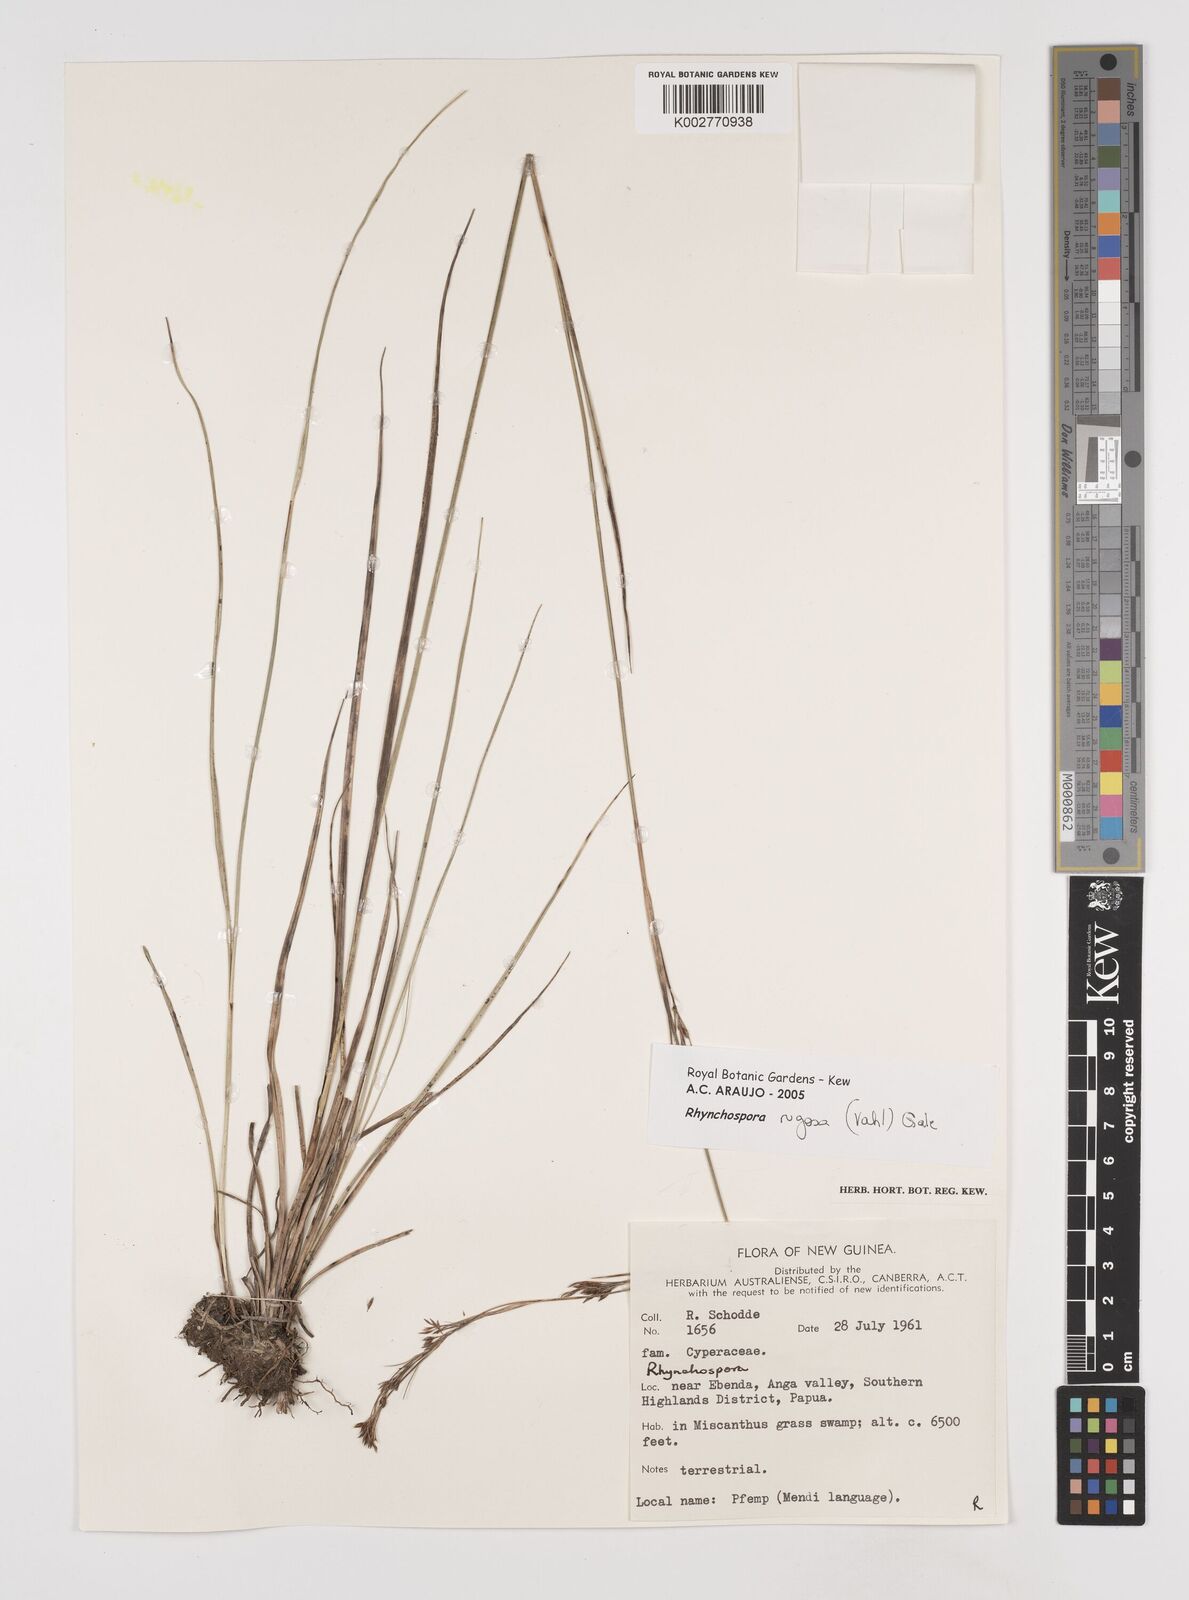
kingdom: Plantae
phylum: Tracheophyta
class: Liliopsida
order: Poales
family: Cyperaceae
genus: Rhynchospora
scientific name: Rhynchospora rugosa
